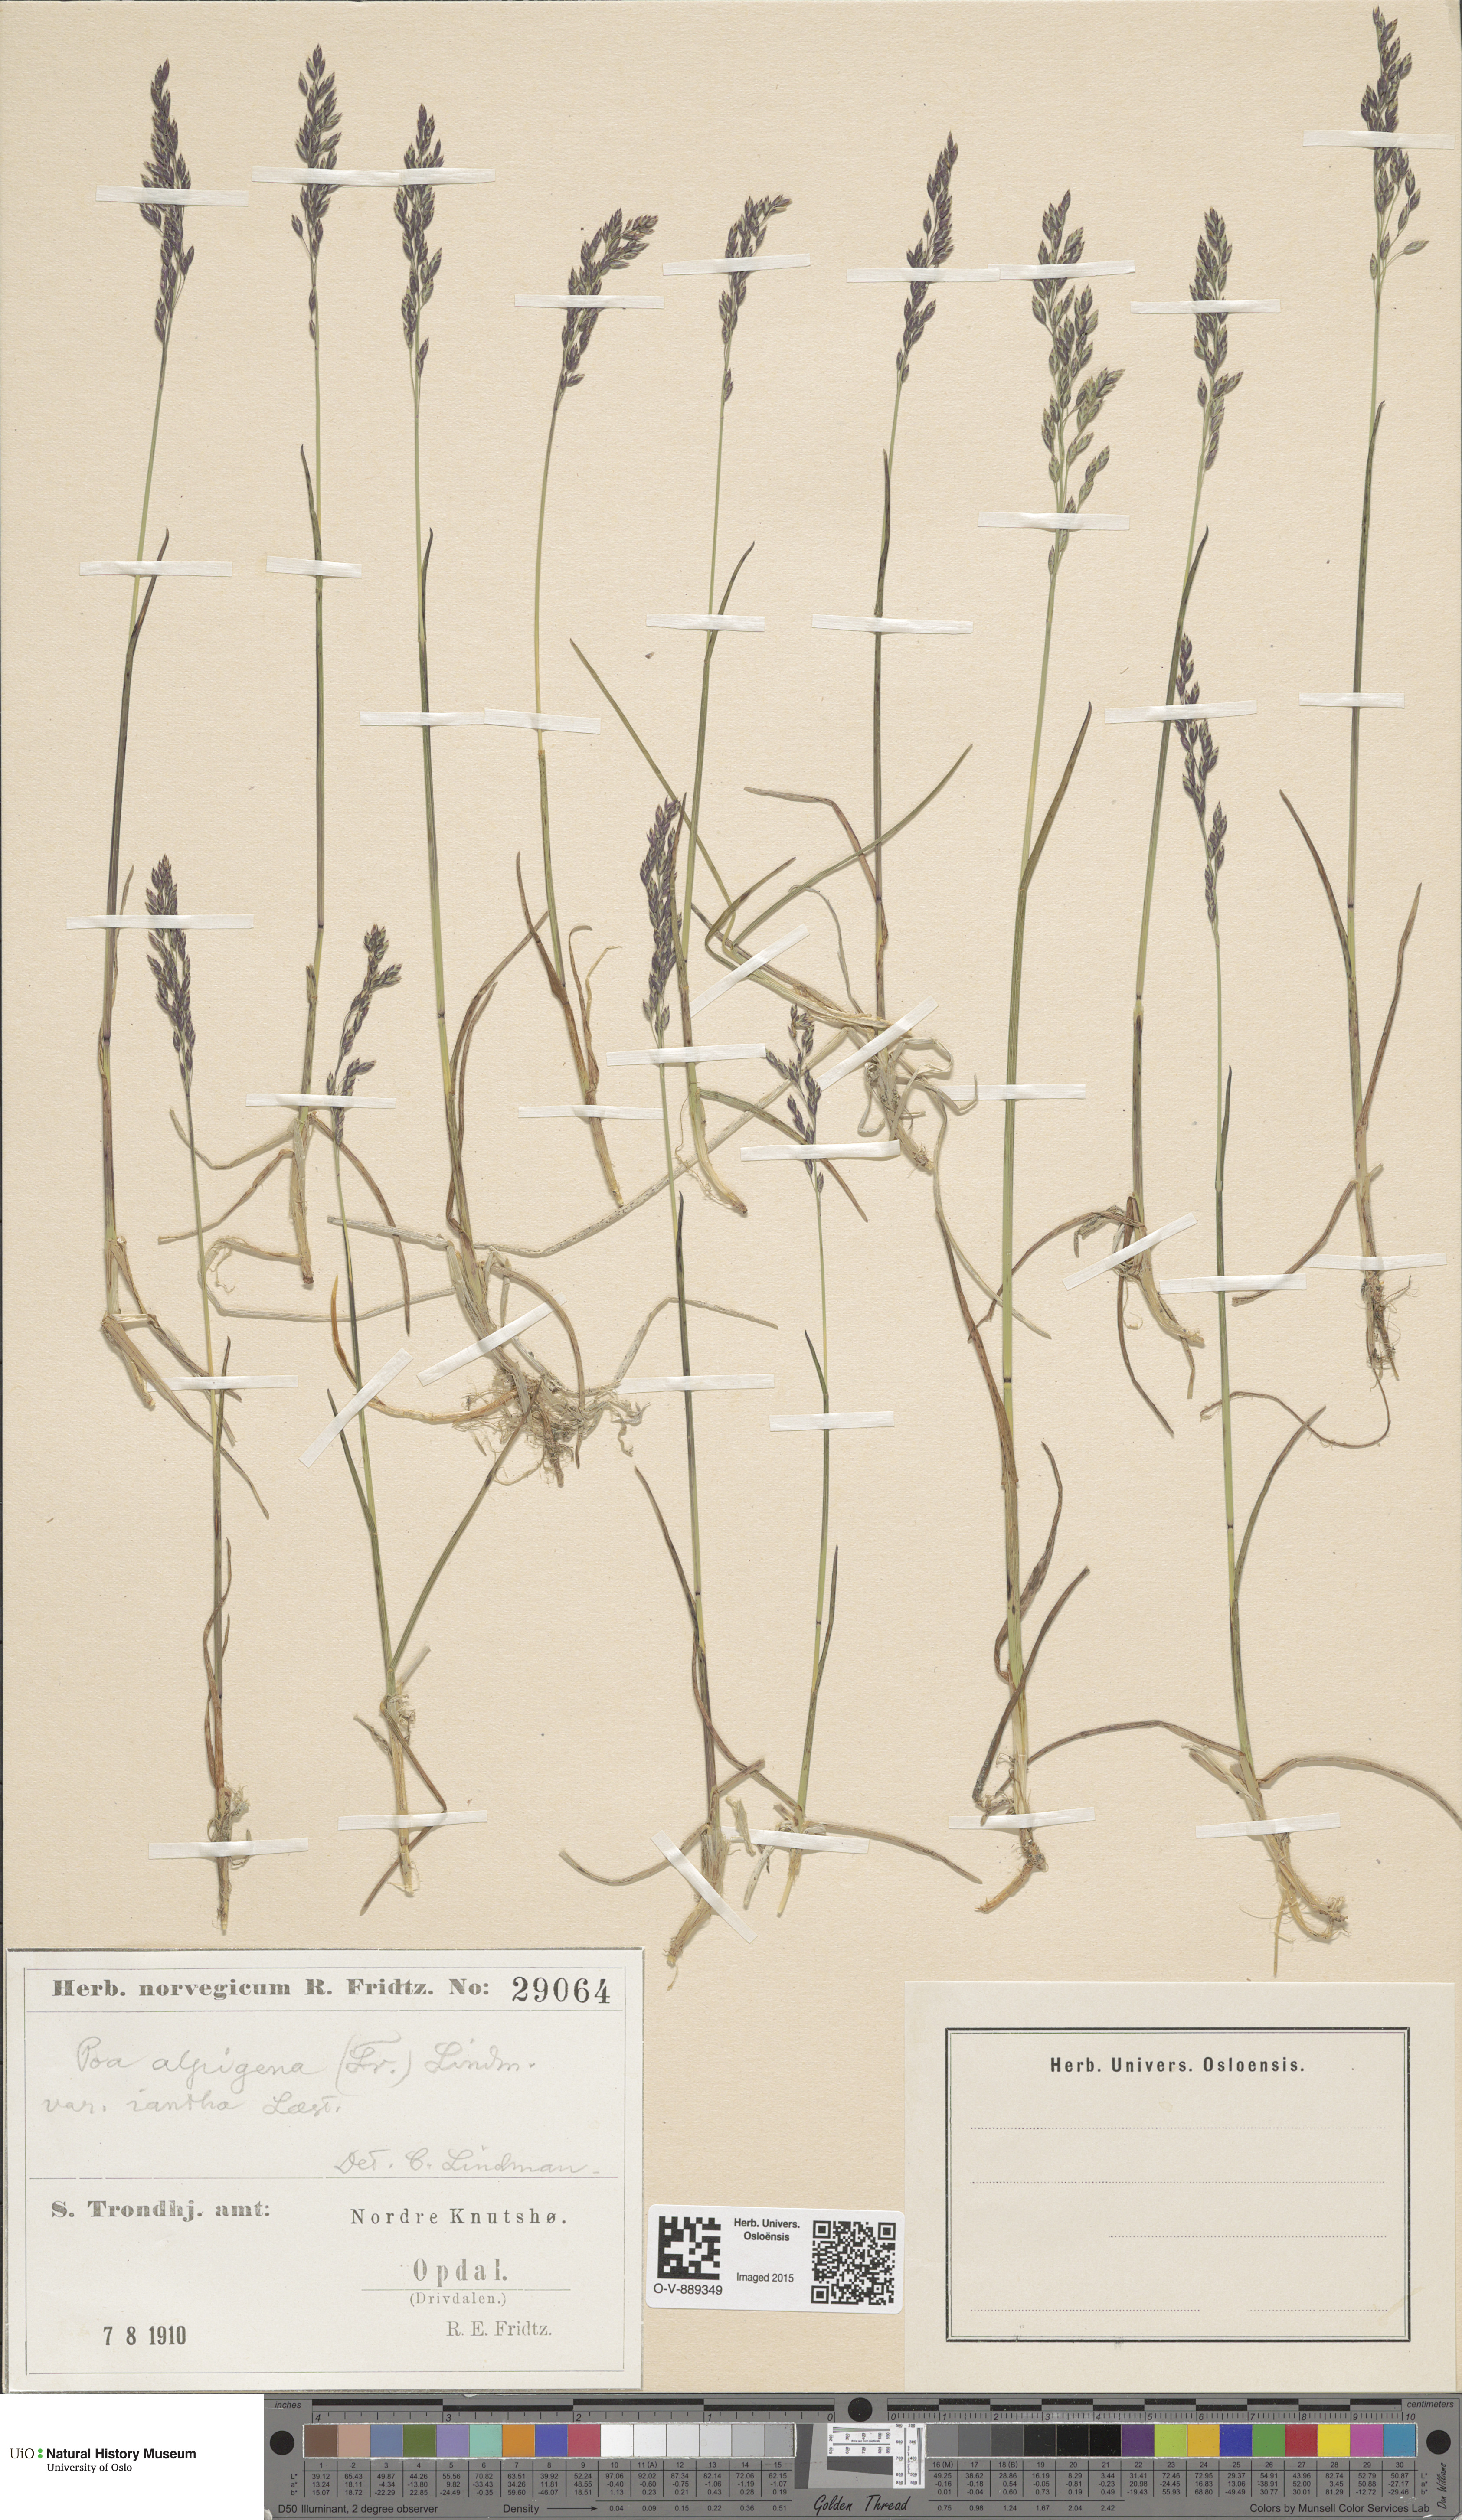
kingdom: Plantae
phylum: Tracheophyta
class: Liliopsida
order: Poales
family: Poaceae
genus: Poa
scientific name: Poa alpigena
